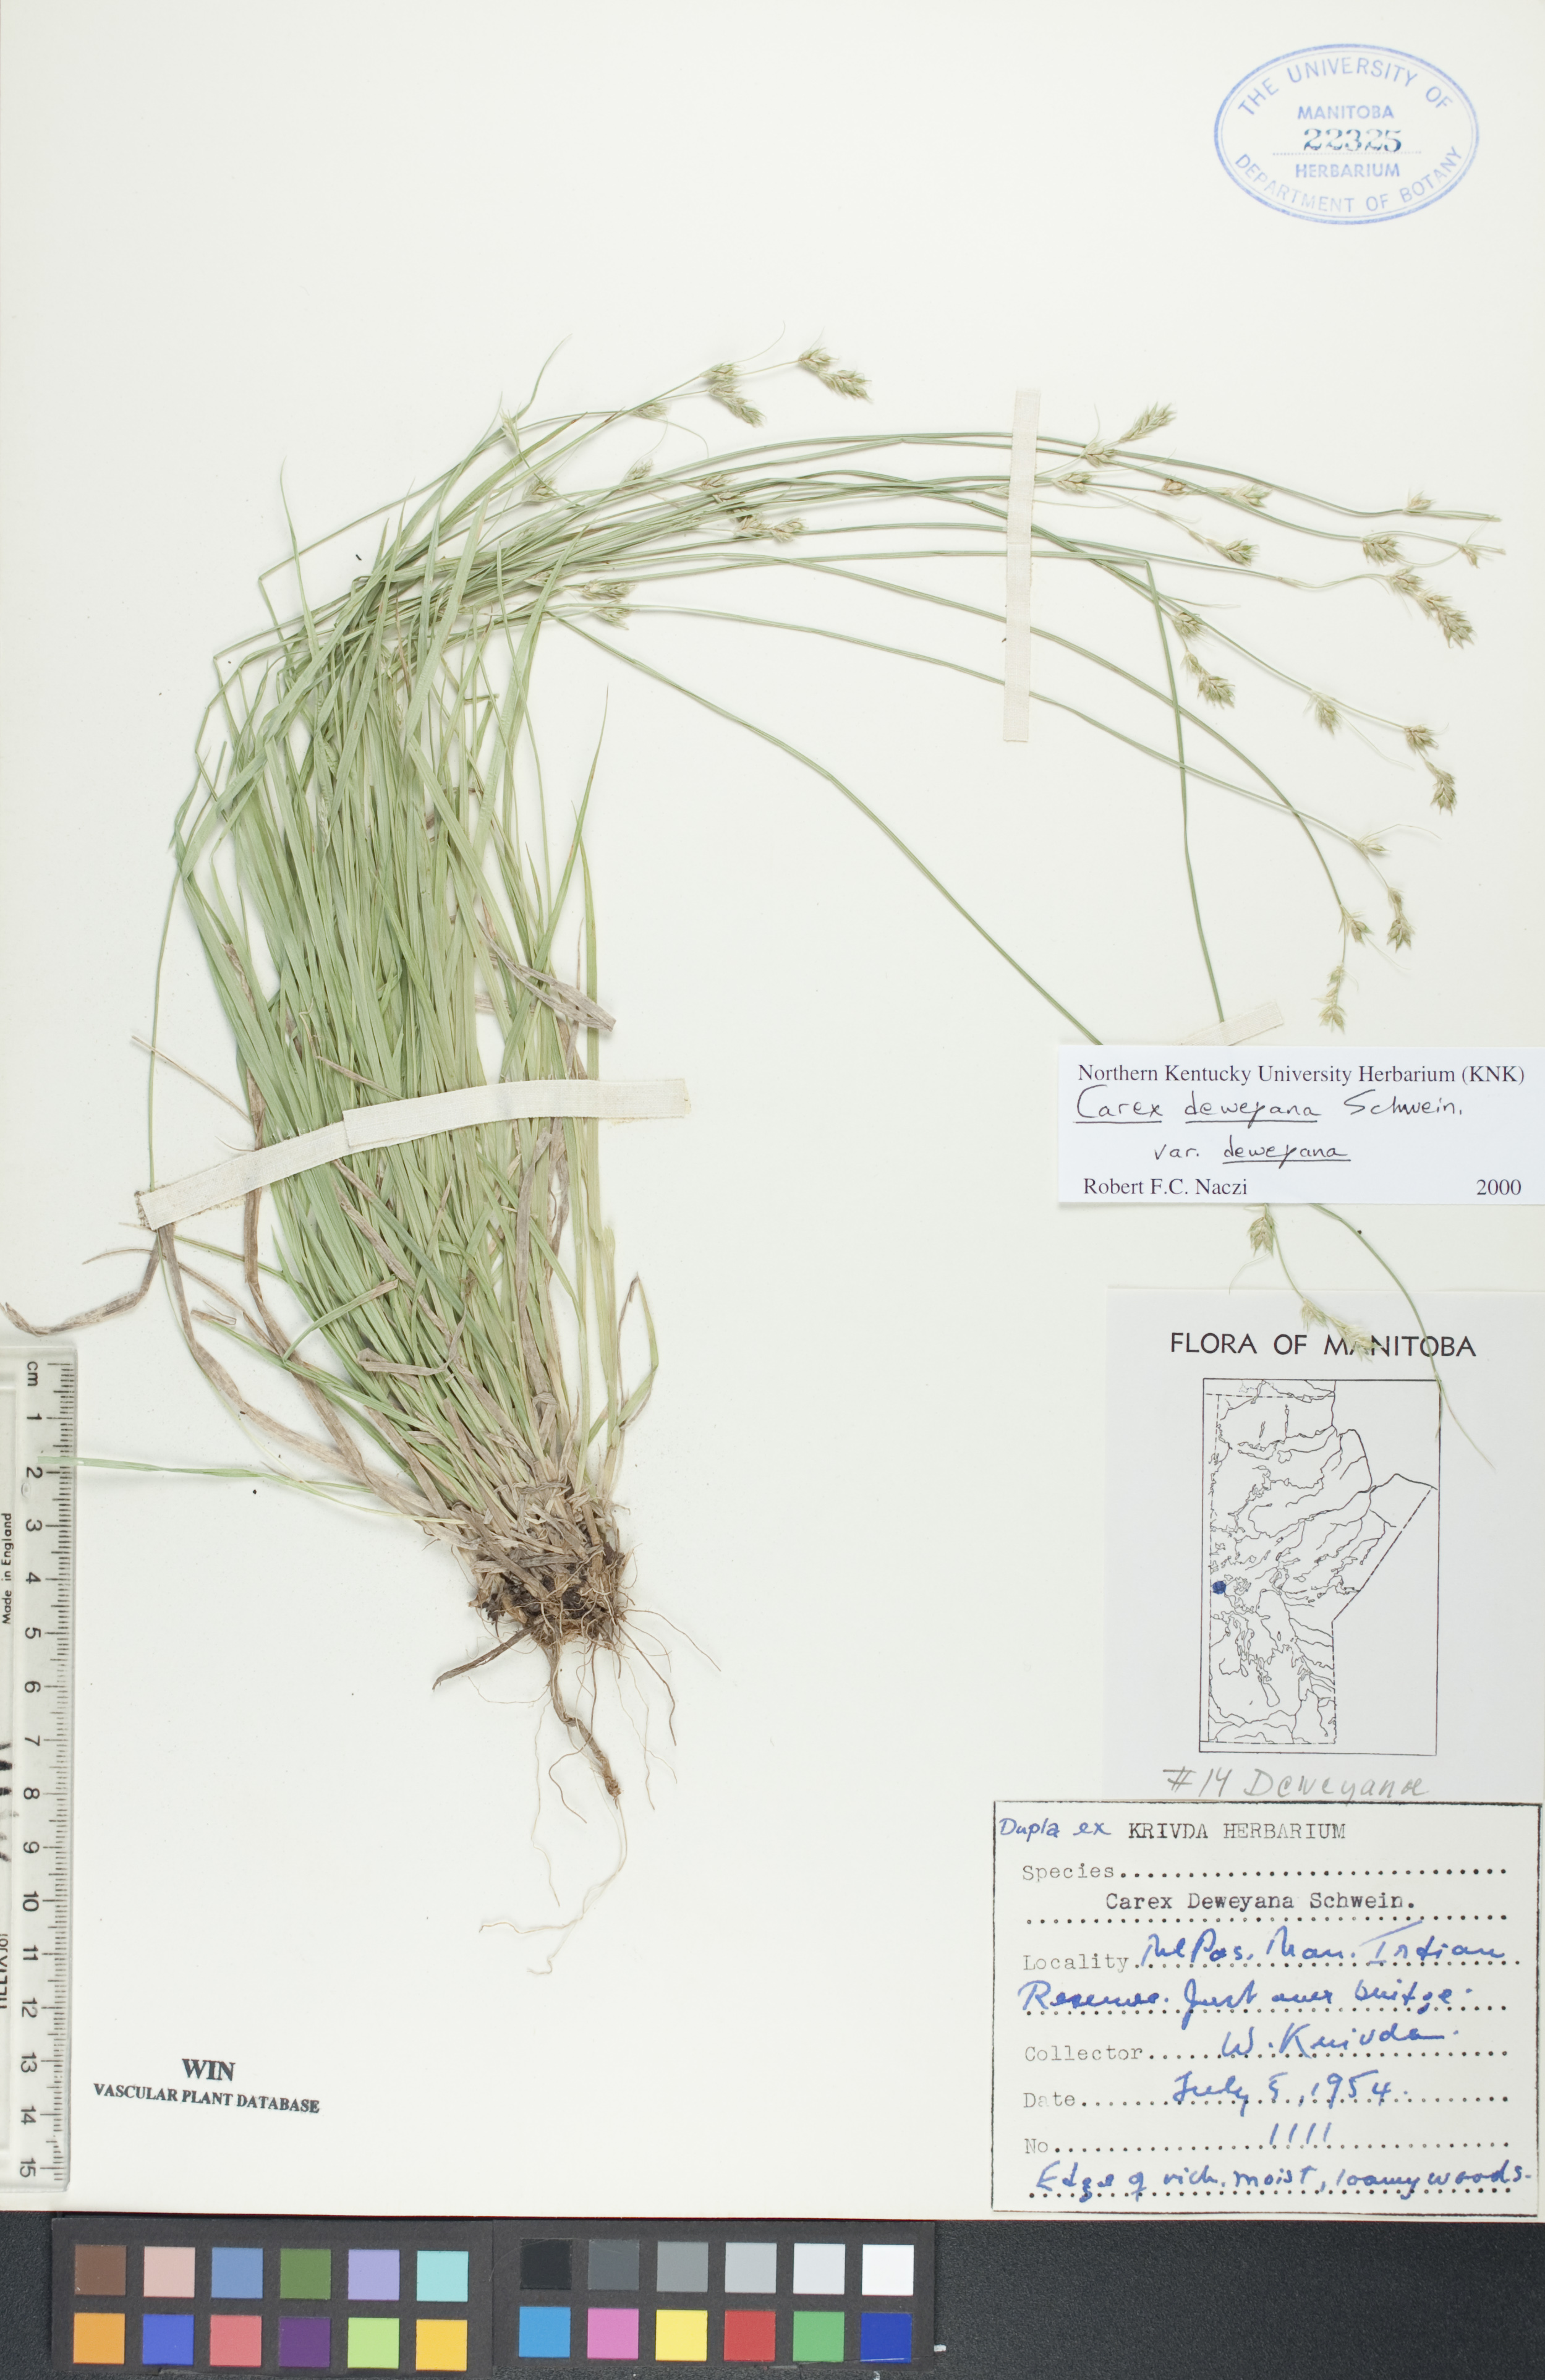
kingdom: Plantae
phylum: Tracheophyta
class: Liliopsida
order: Poales
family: Cyperaceae
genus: Carex
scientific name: Carex deweyana
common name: Dewey's sedge
